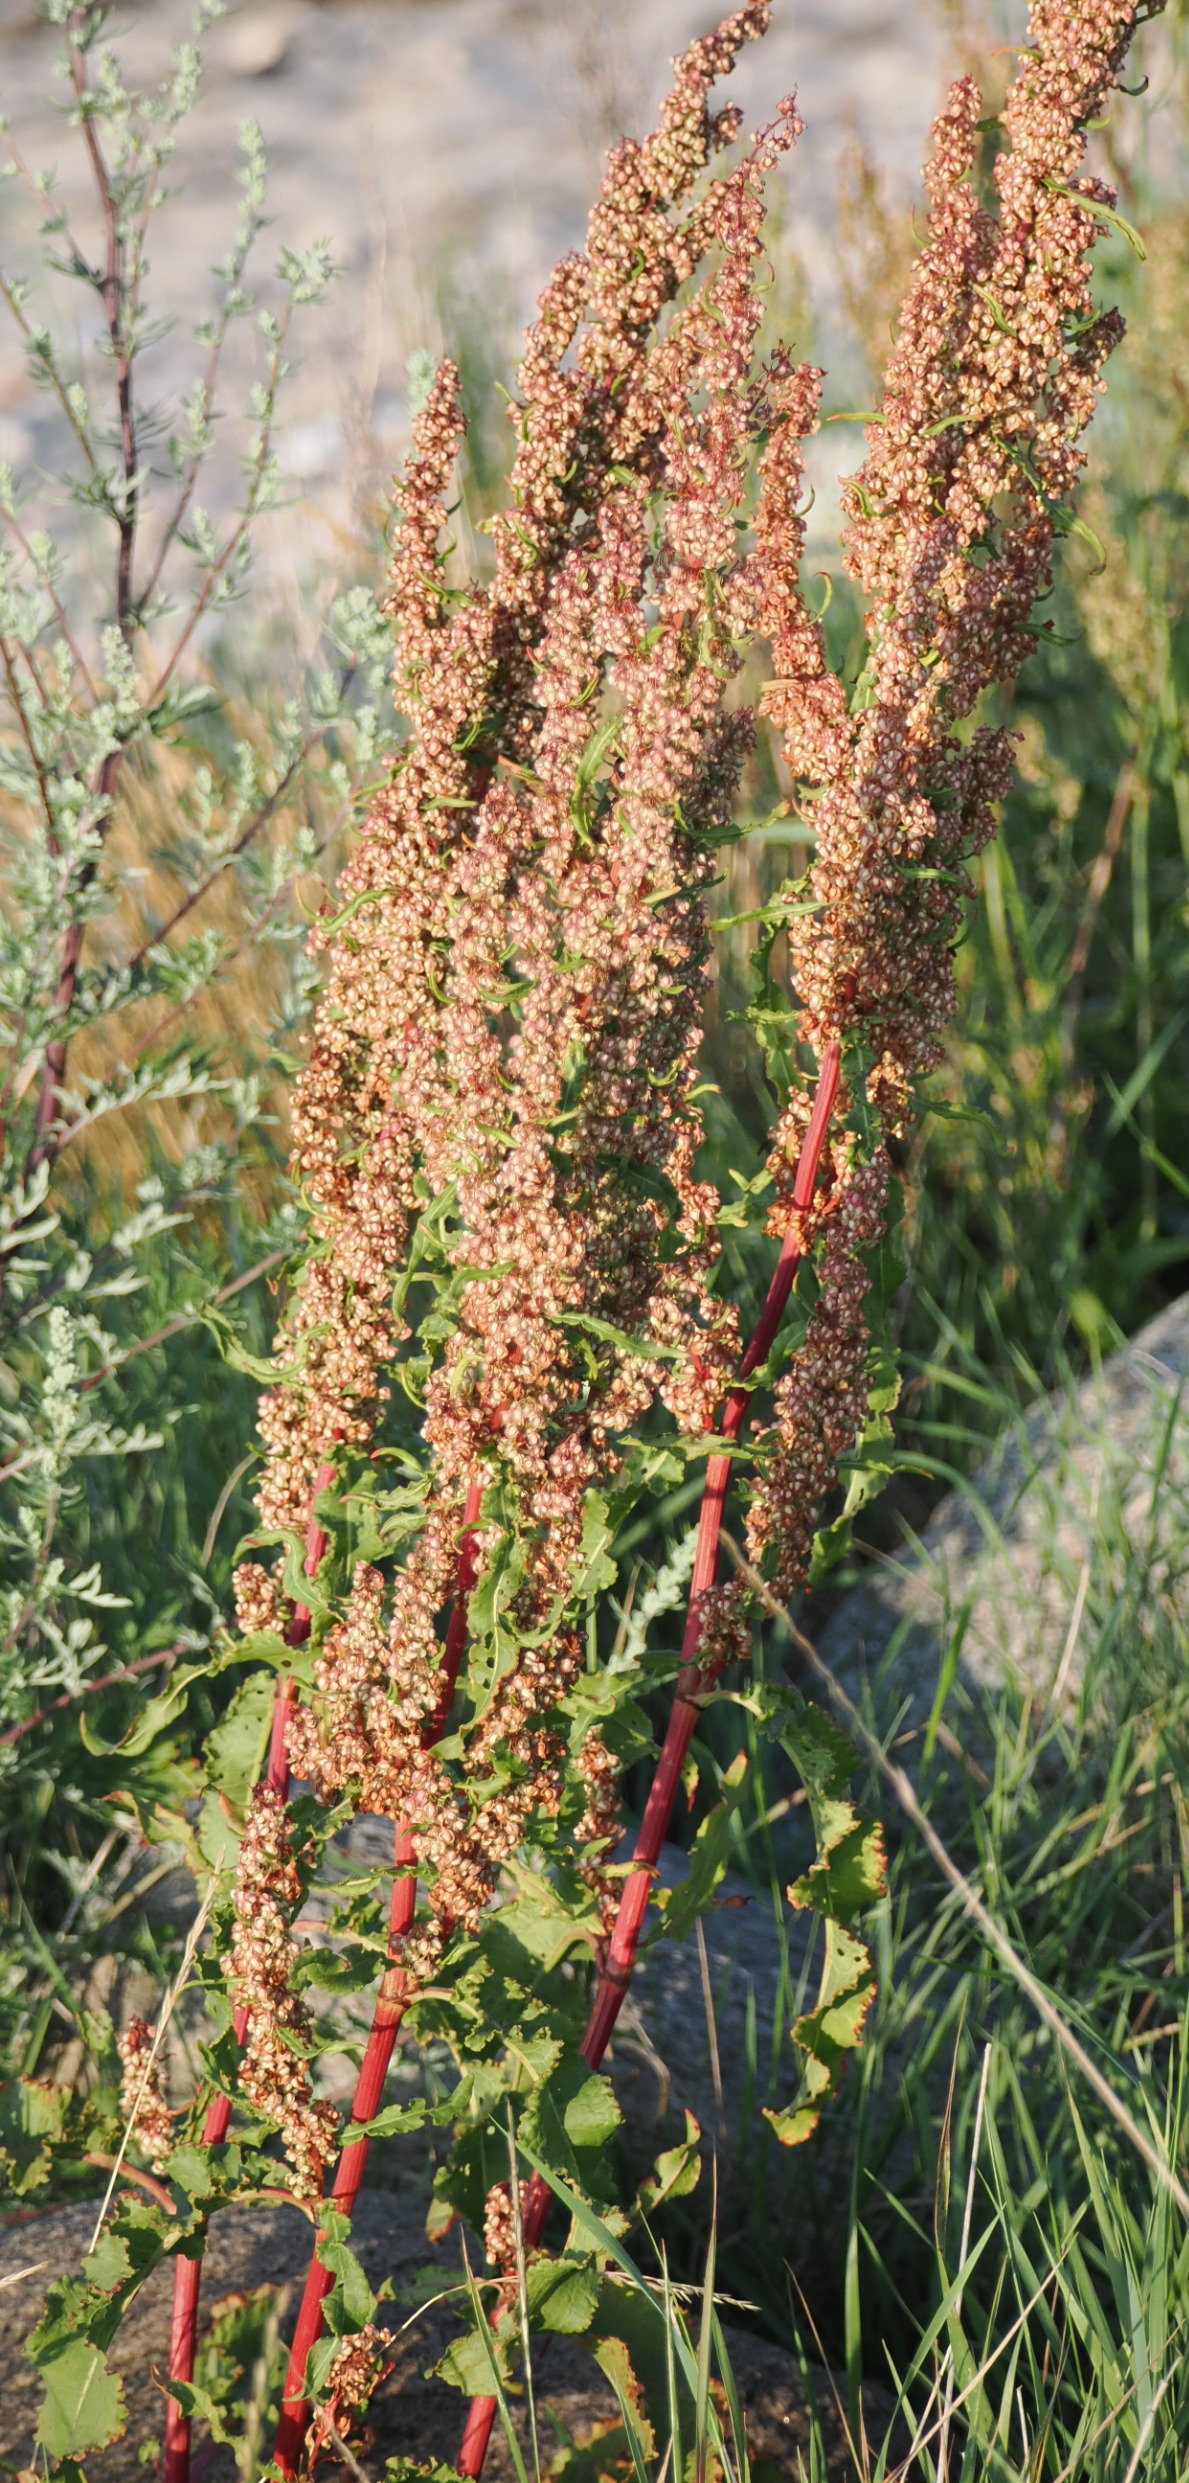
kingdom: Plantae
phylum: Tracheophyta
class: Magnoliopsida
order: Caryophyllales
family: Polygonaceae
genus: Rumex
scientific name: Rumex crispus
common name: Kruset skræppe
